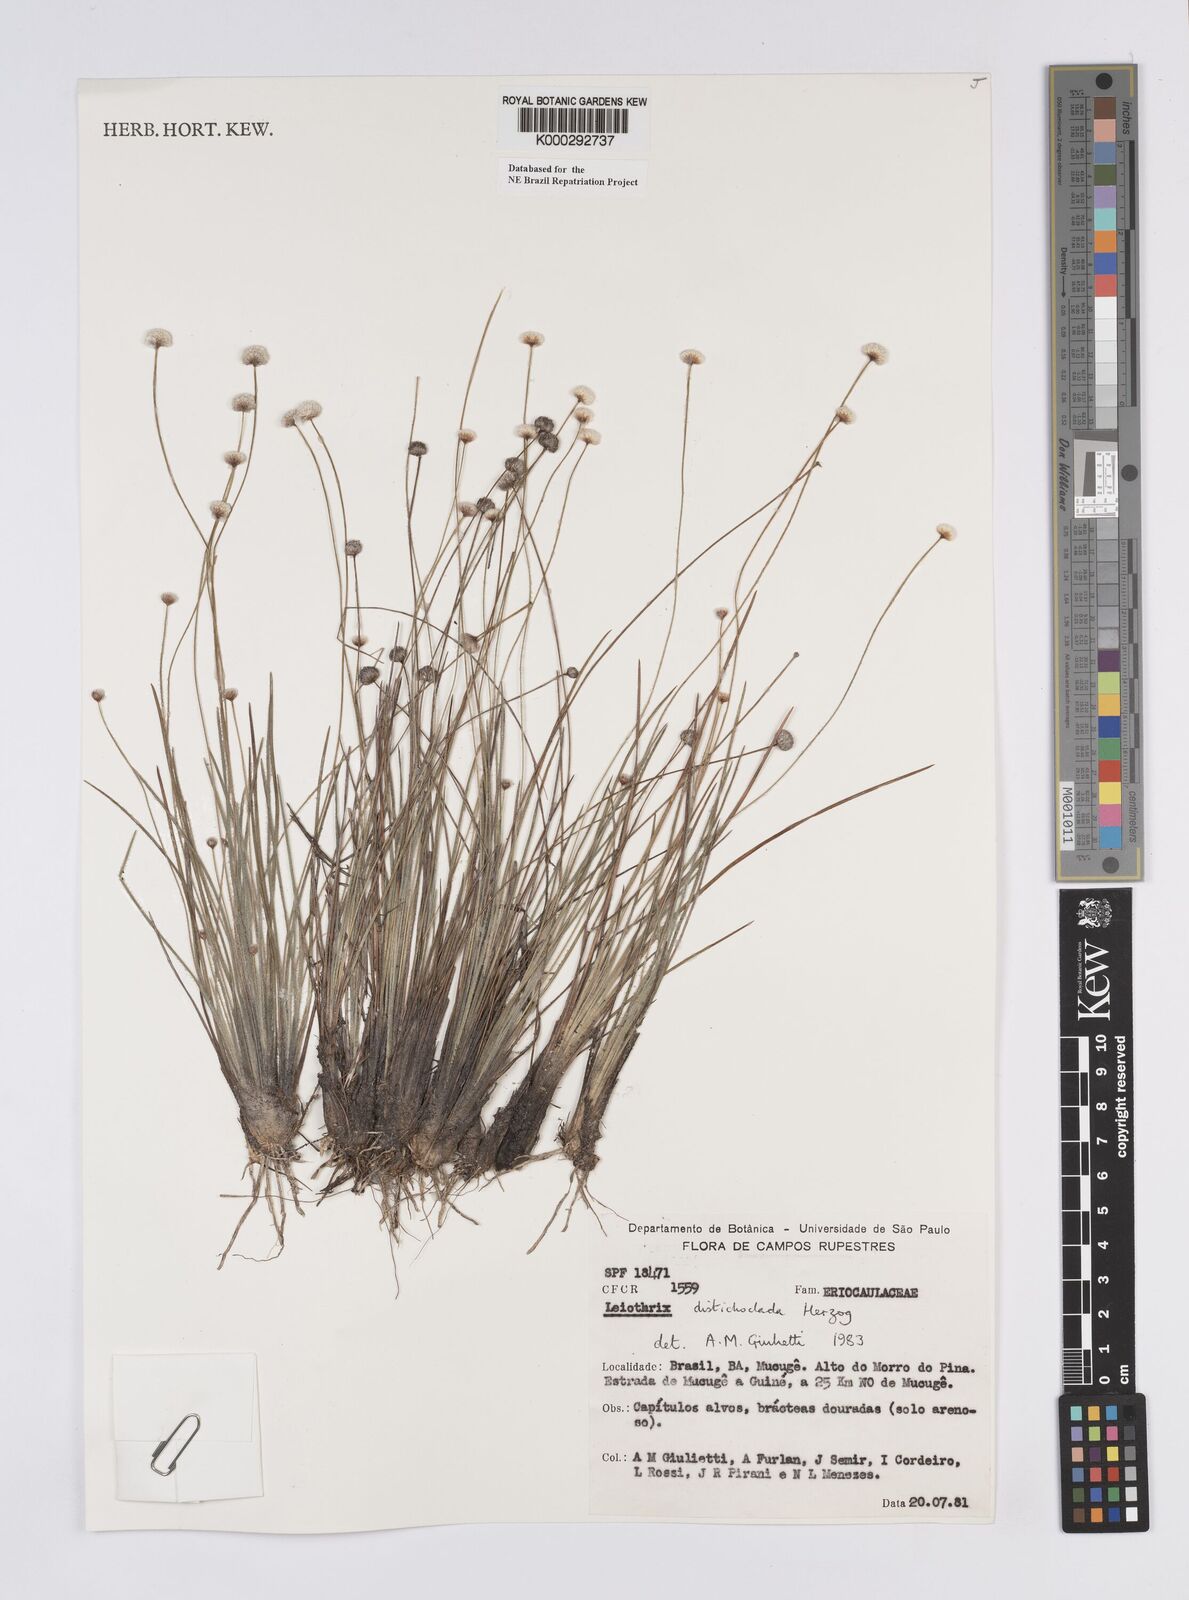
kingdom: Plantae
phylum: Tracheophyta
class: Liliopsida
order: Poales
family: Eriocaulaceae
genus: Leiothrix
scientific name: Leiothrix distichoclada
